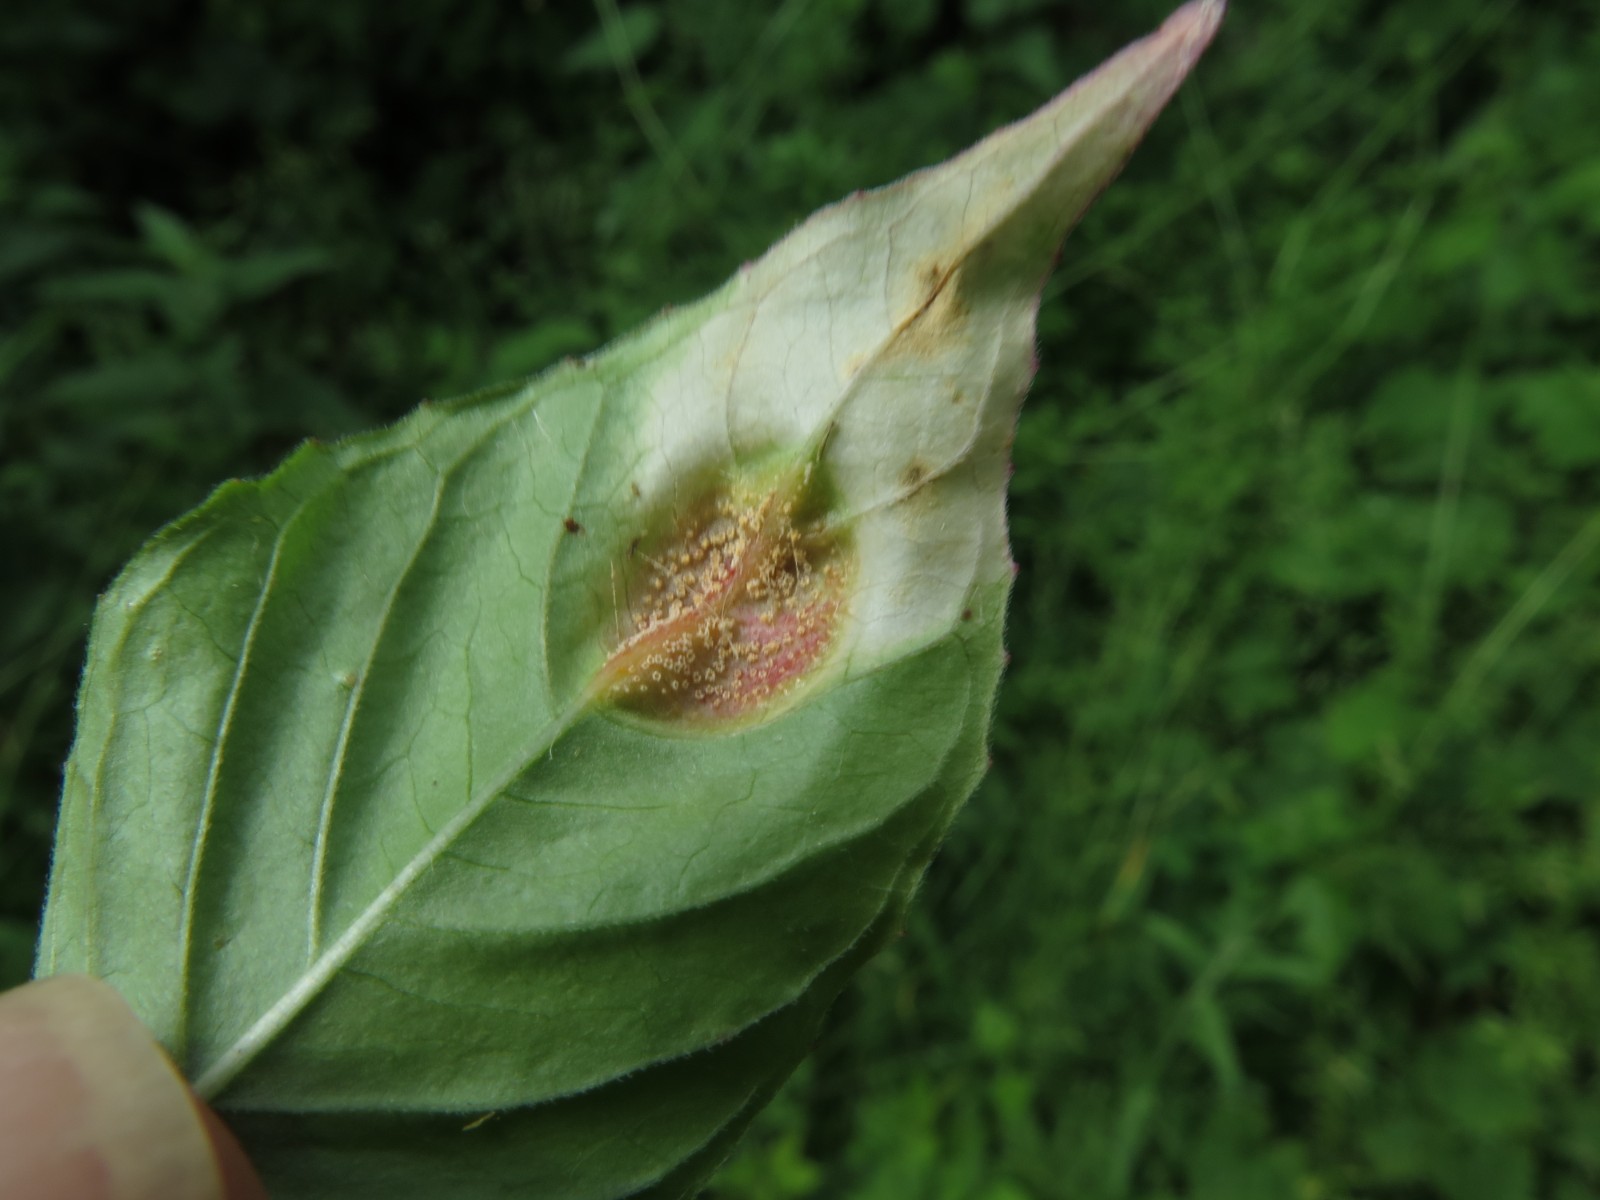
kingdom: Fungi
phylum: Basidiomycota
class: Pucciniomycetes
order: Pucciniales
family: Pucciniaceae
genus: Puccinia
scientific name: Puccinia circaeae
